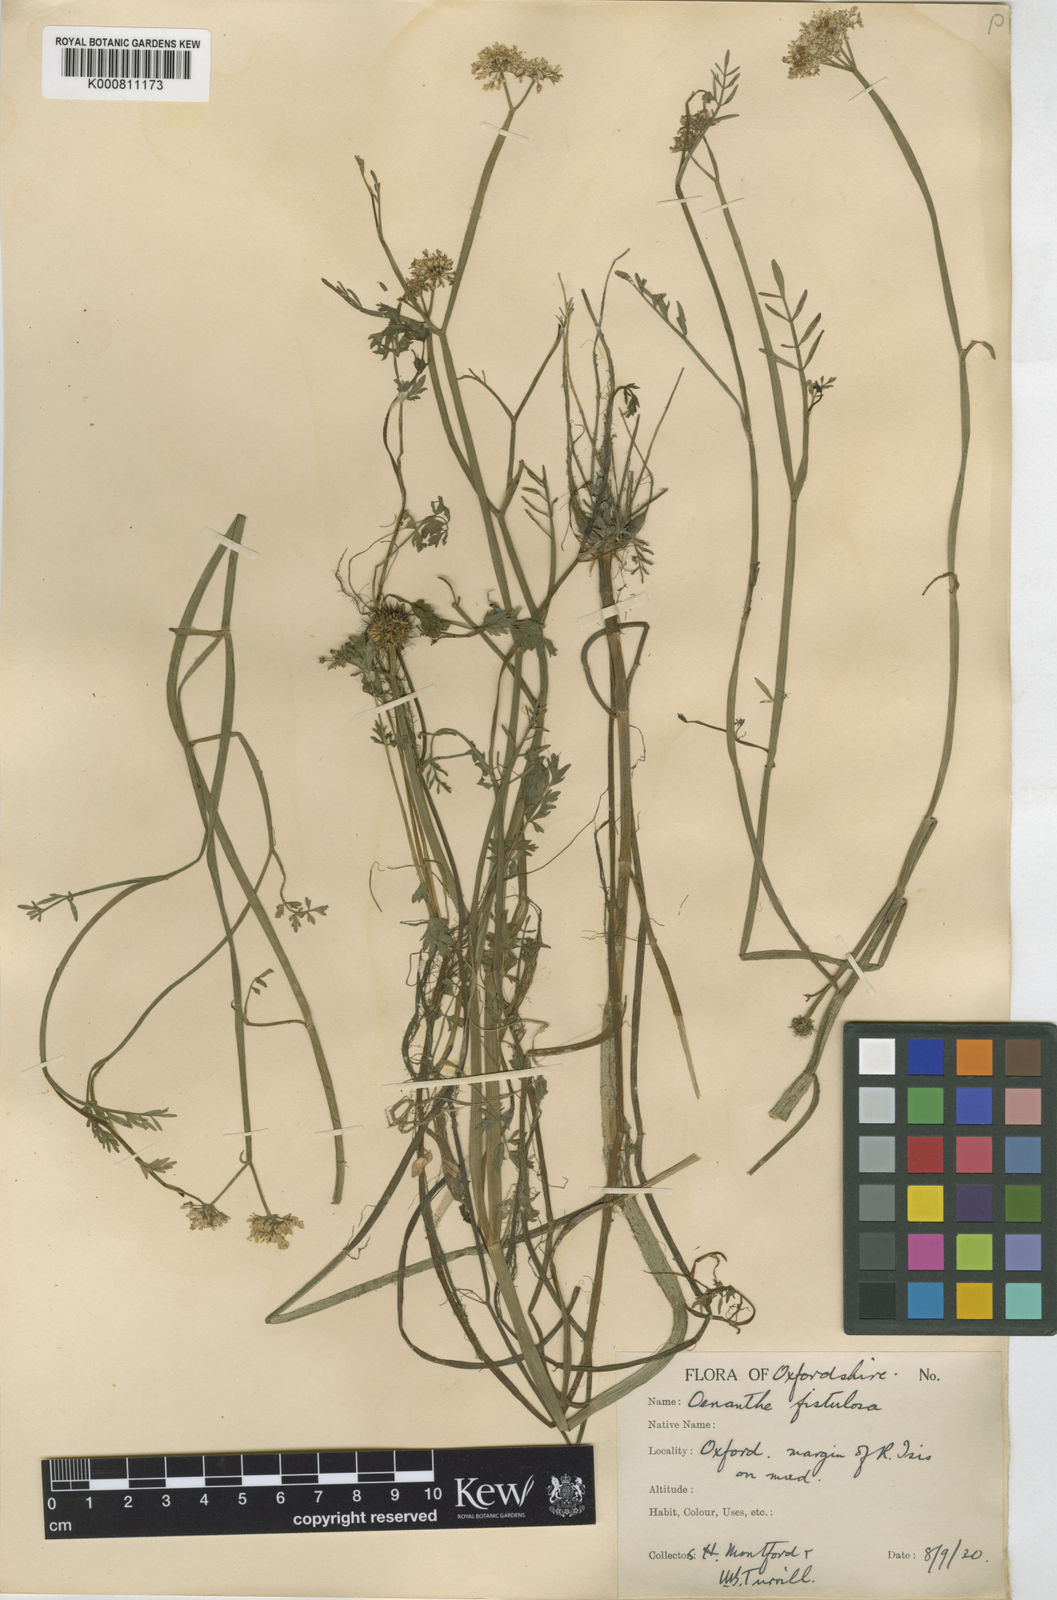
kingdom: Plantae
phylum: Tracheophyta
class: Magnoliopsida
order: Apiales
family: Apiaceae
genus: Oenanthe
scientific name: Oenanthe fistulosa
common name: Tubular water-dropwort
